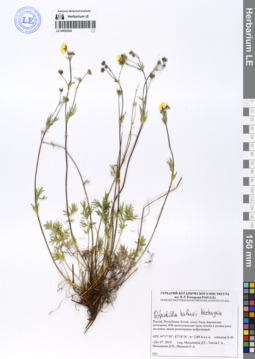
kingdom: Plantae
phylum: Tracheophyta
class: Magnoliopsida
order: Rosales
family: Rosaceae
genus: Potentilla
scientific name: Potentilla habievii
